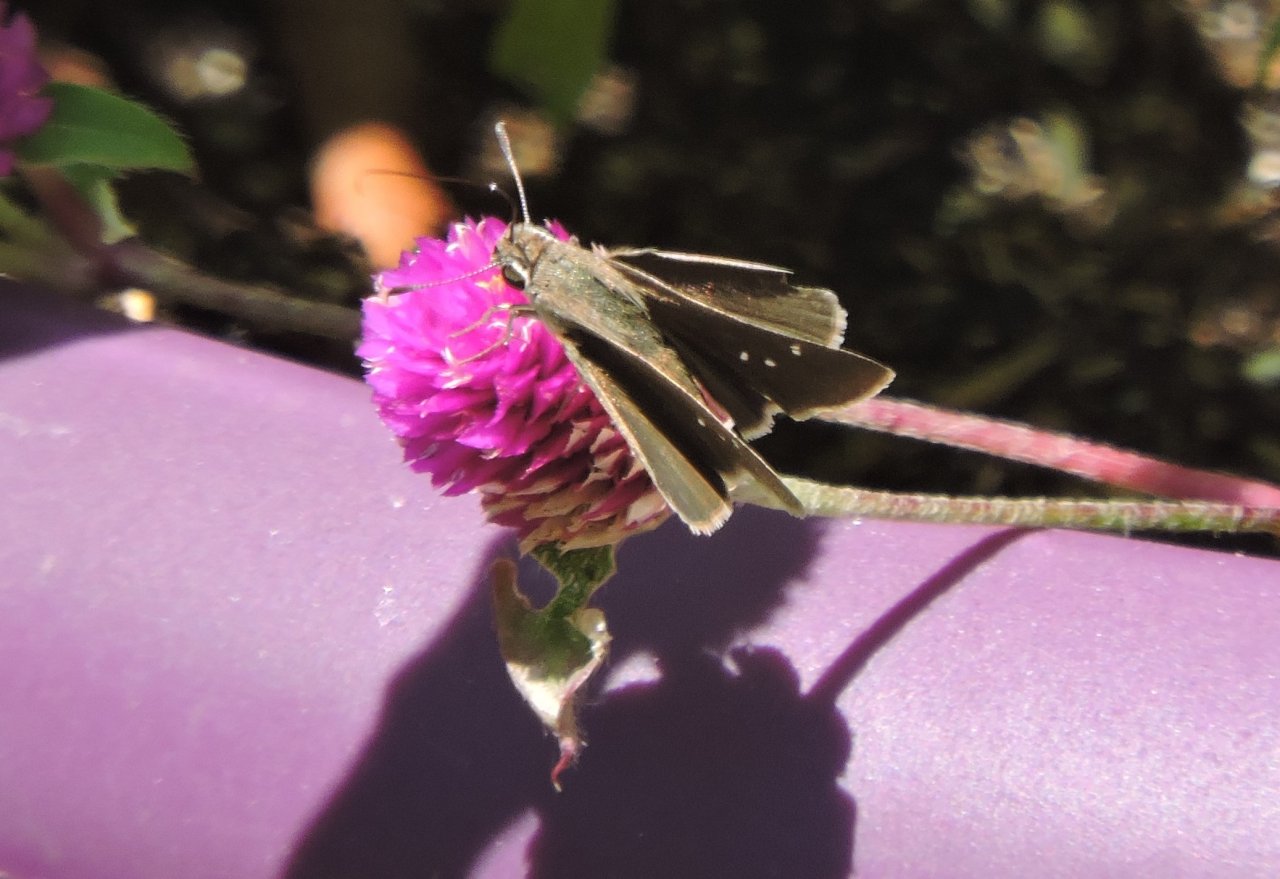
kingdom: Animalia
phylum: Arthropoda
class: Insecta
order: Lepidoptera
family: Hesperiidae
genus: Lerodea
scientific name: Lerodea eufala
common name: Eufala Skipper
